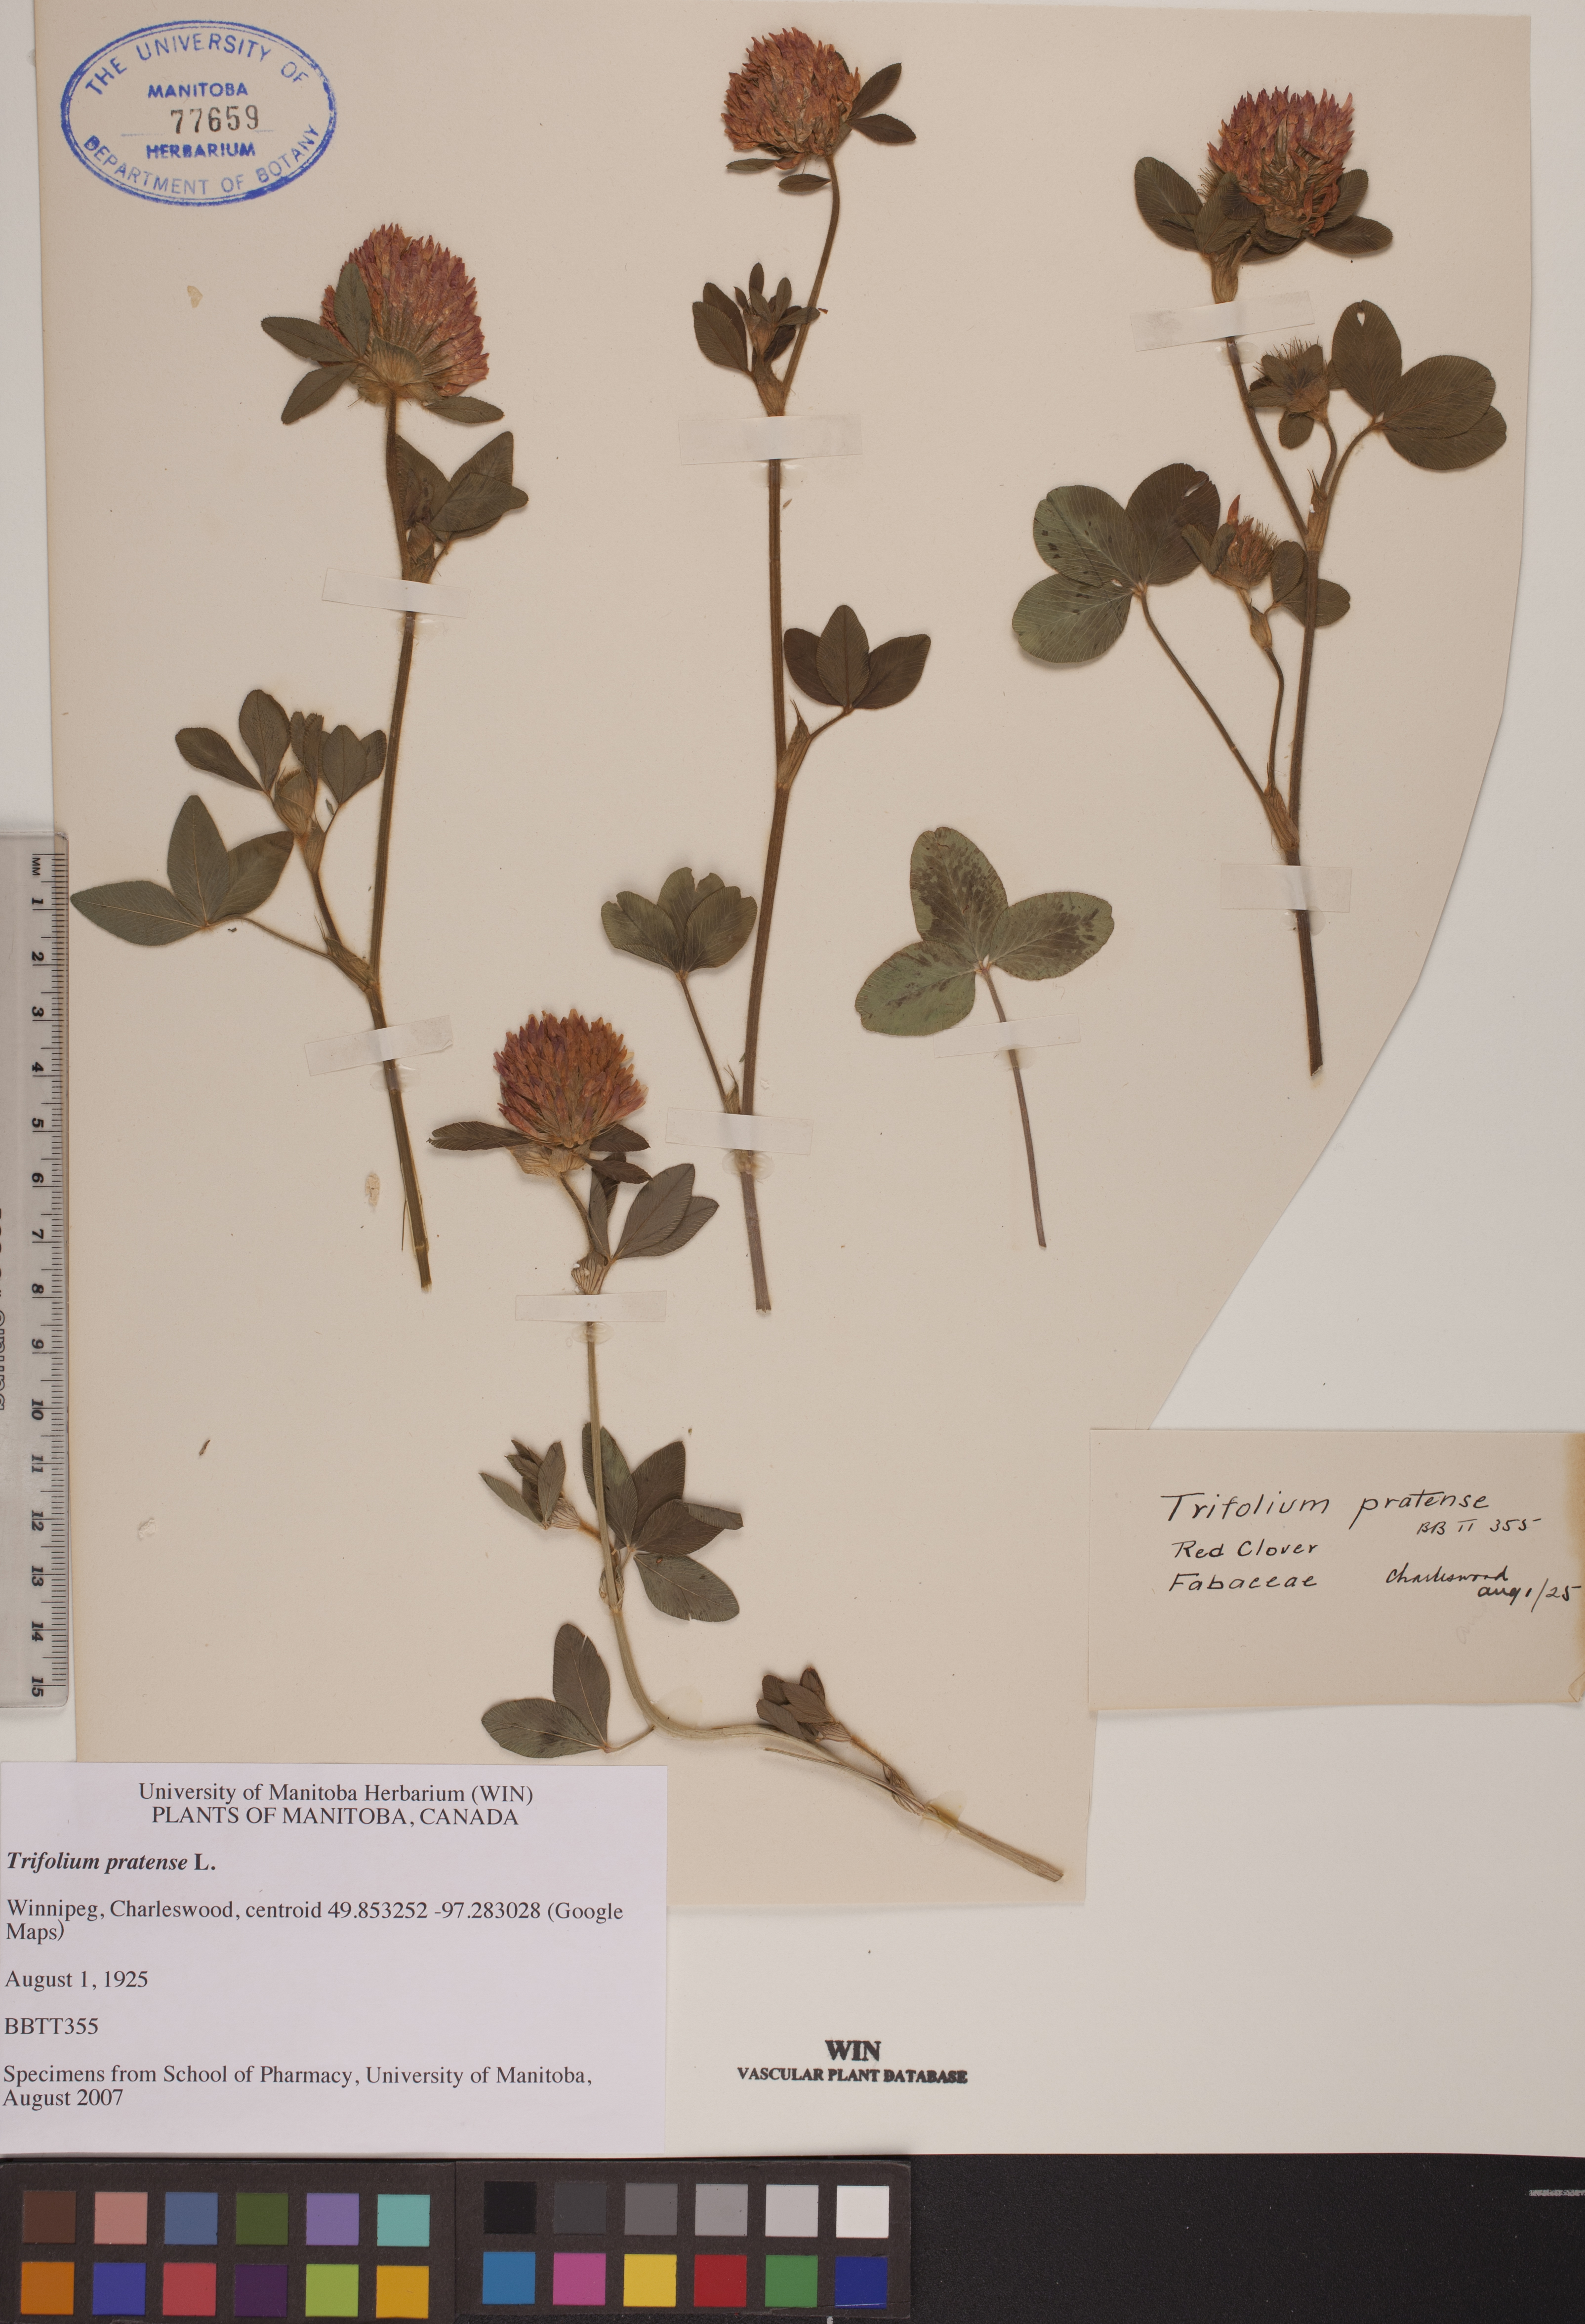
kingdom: Plantae
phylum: Tracheophyta
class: Magnoliopsida
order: Fabales
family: Fabaceae
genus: Trifolium
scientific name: Trifolium pratense
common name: Red clover
